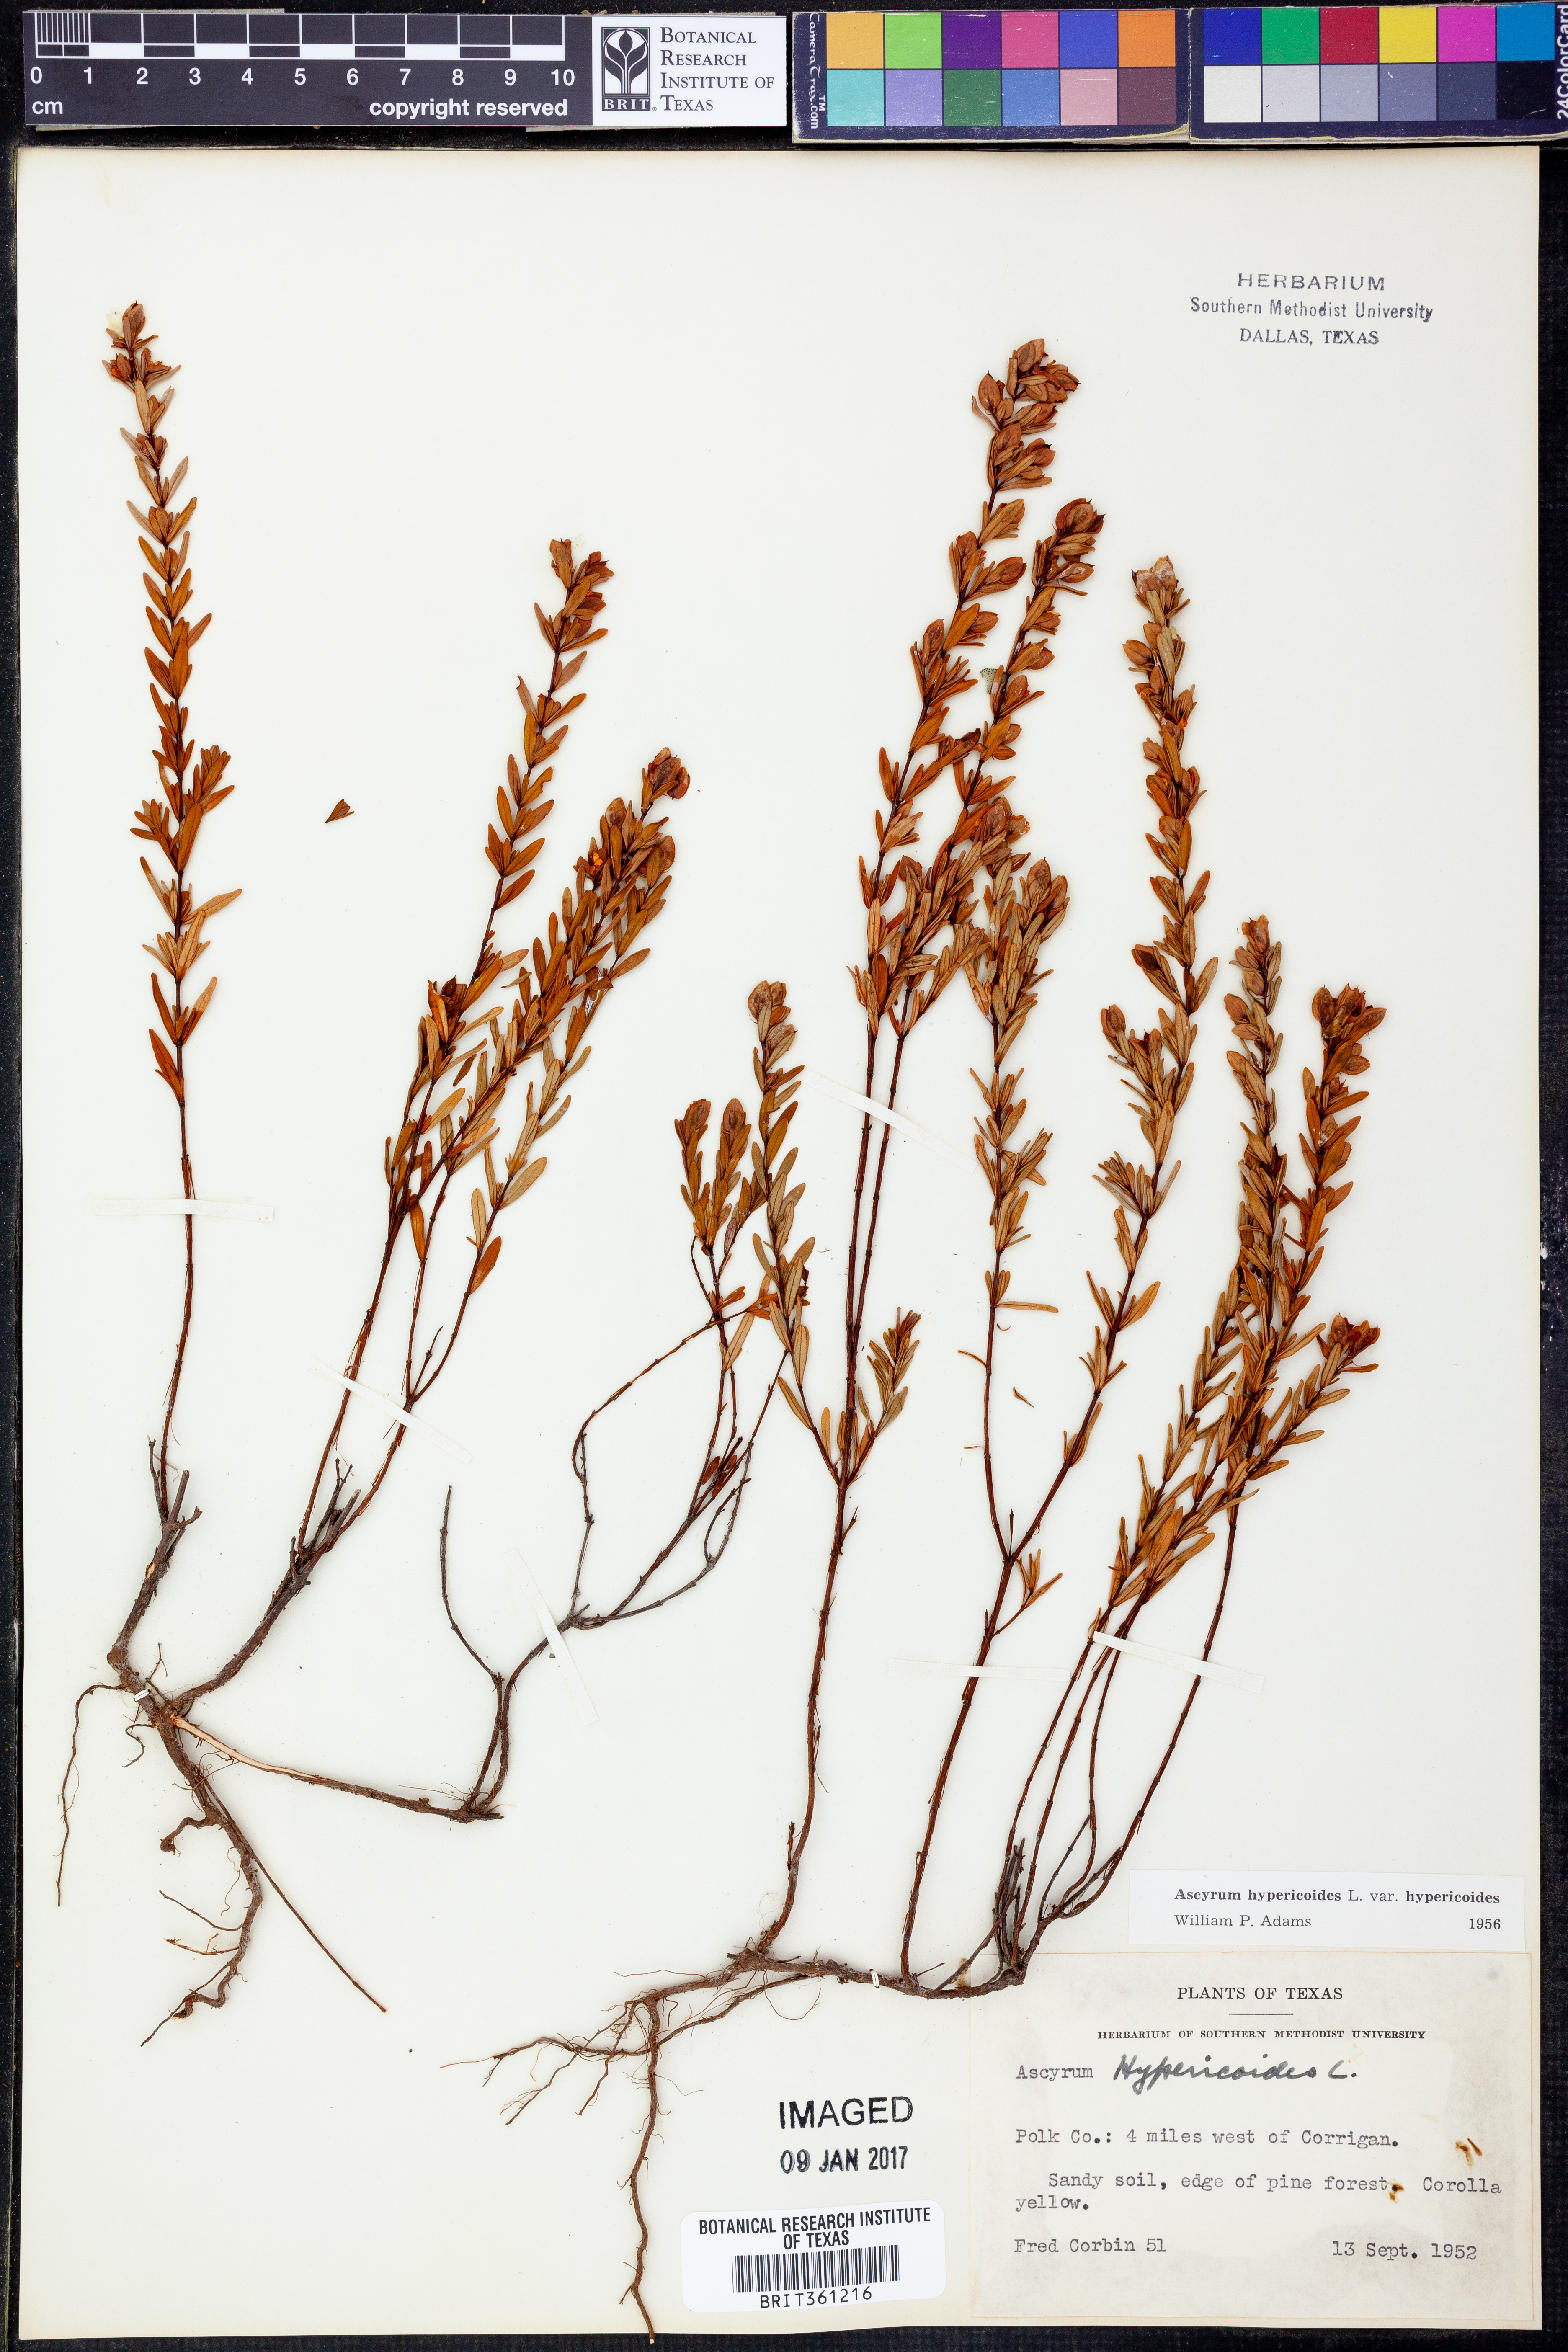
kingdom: Plantae
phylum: Tracheophyta
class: Magnoliopsida
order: Malpighiales
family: Hypericaceae
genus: Hypericum
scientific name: Hypericum hypericoides
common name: St. andrew's cross
